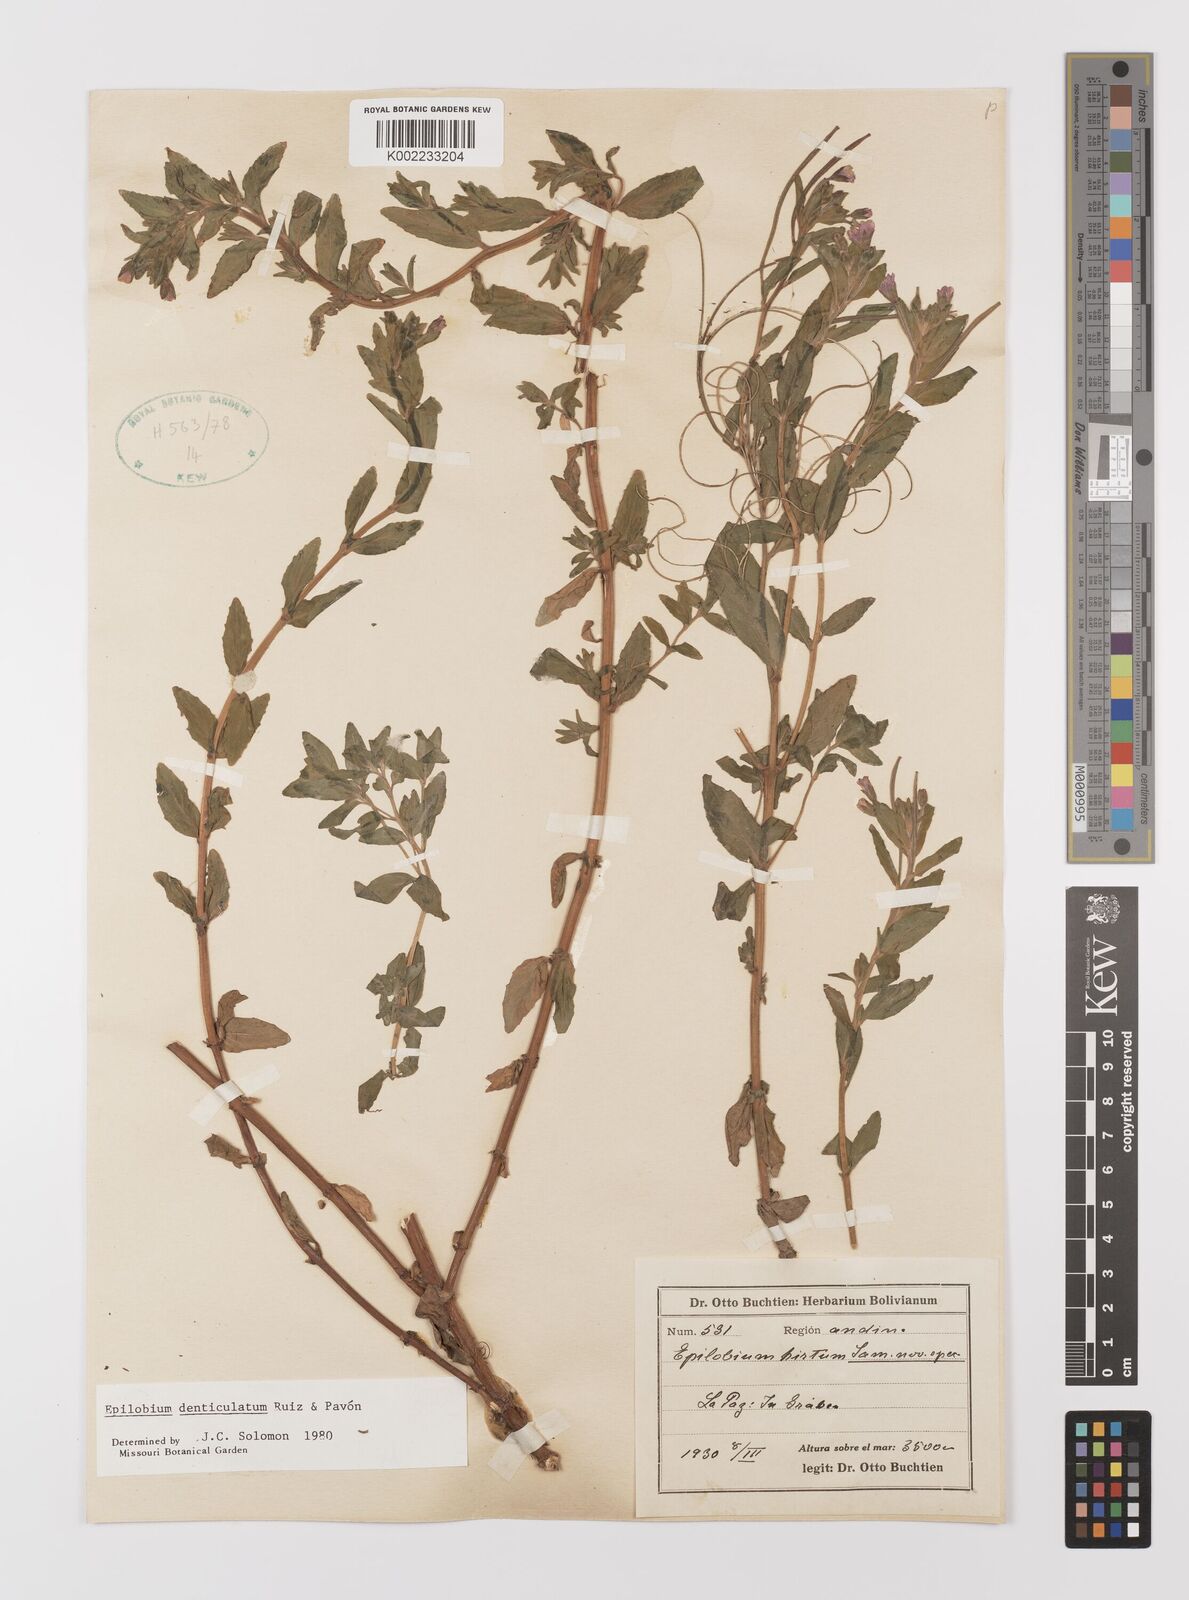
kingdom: Plantae
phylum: Tracheophyta
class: Magnoliopsida
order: Myrtales
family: Onagraceae
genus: Epilobium
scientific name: Epilobium denticulatum
